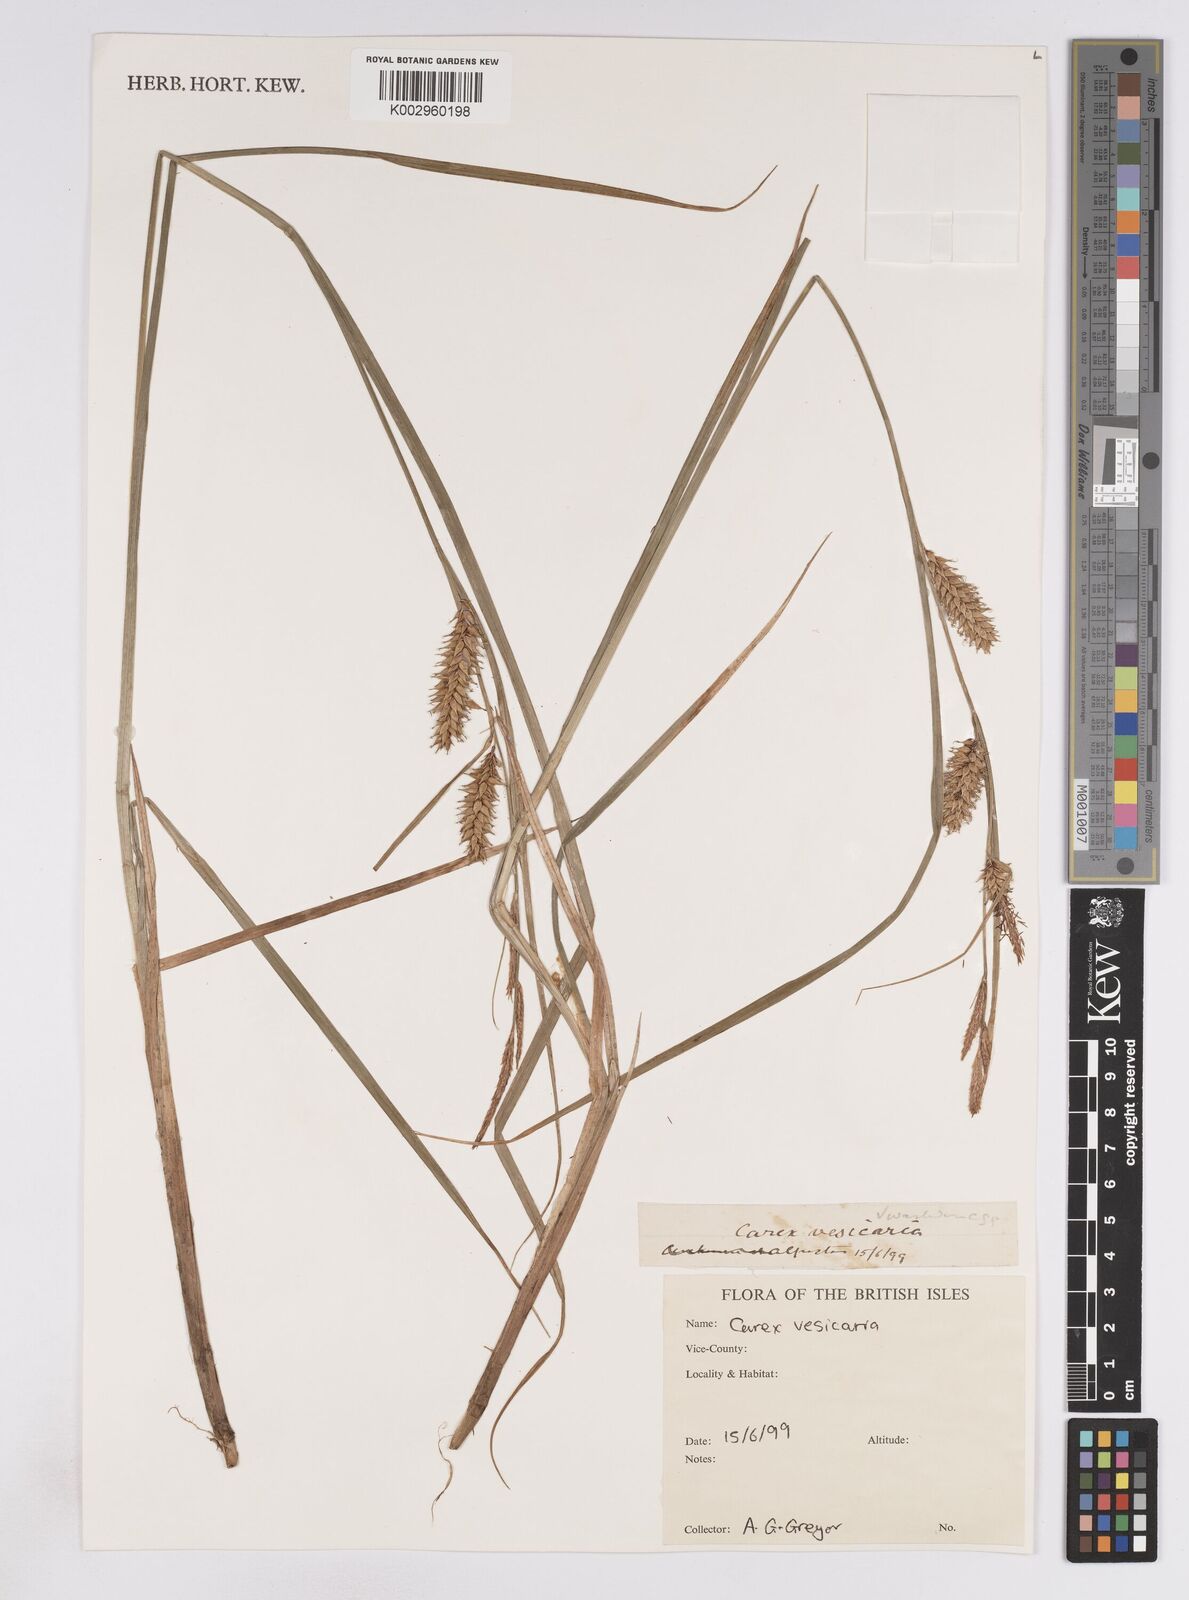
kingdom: Plantae
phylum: Tracheophyta
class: Liliopsida
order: Poales
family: Cyperaceae
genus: Carex
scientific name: Carex vesicaria
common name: Bladder-sedge
